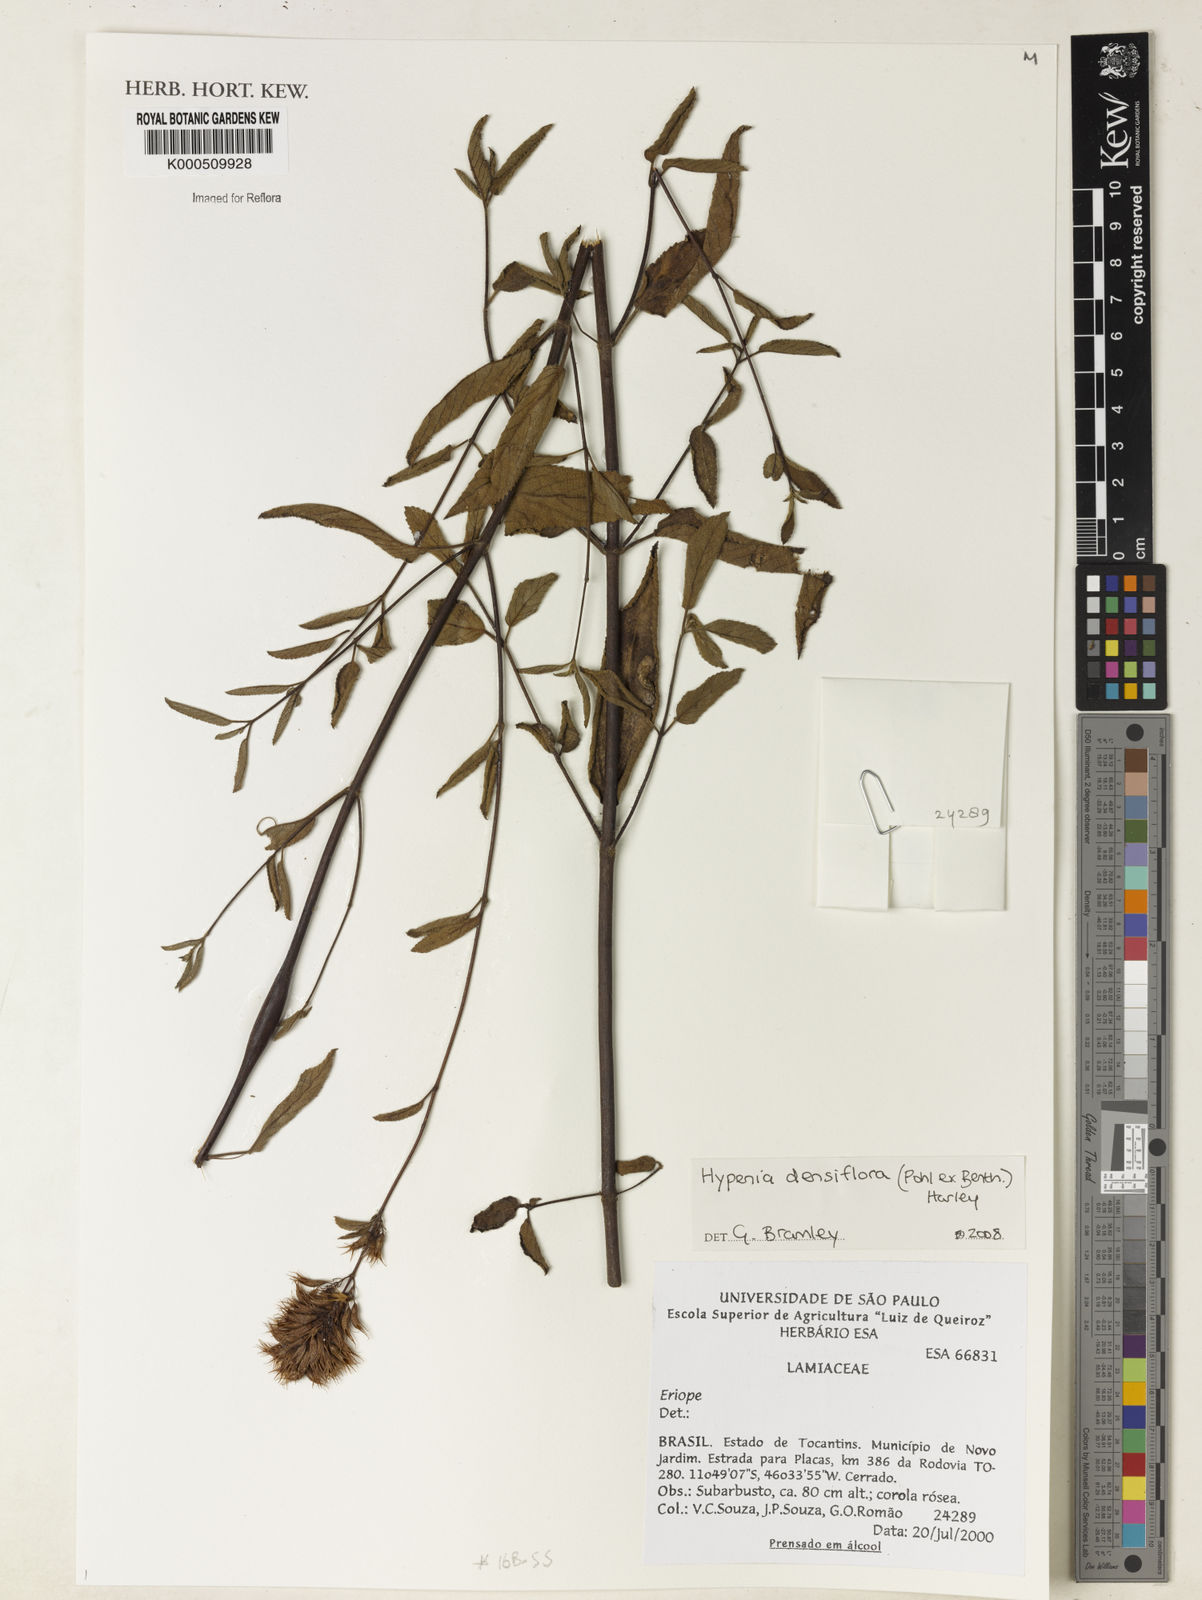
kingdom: Plantae
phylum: Tracheophyta
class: Magnoliopsida
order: Lamiales
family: Lamiaceae
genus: Hypenia
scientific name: Hypenia densiflora
